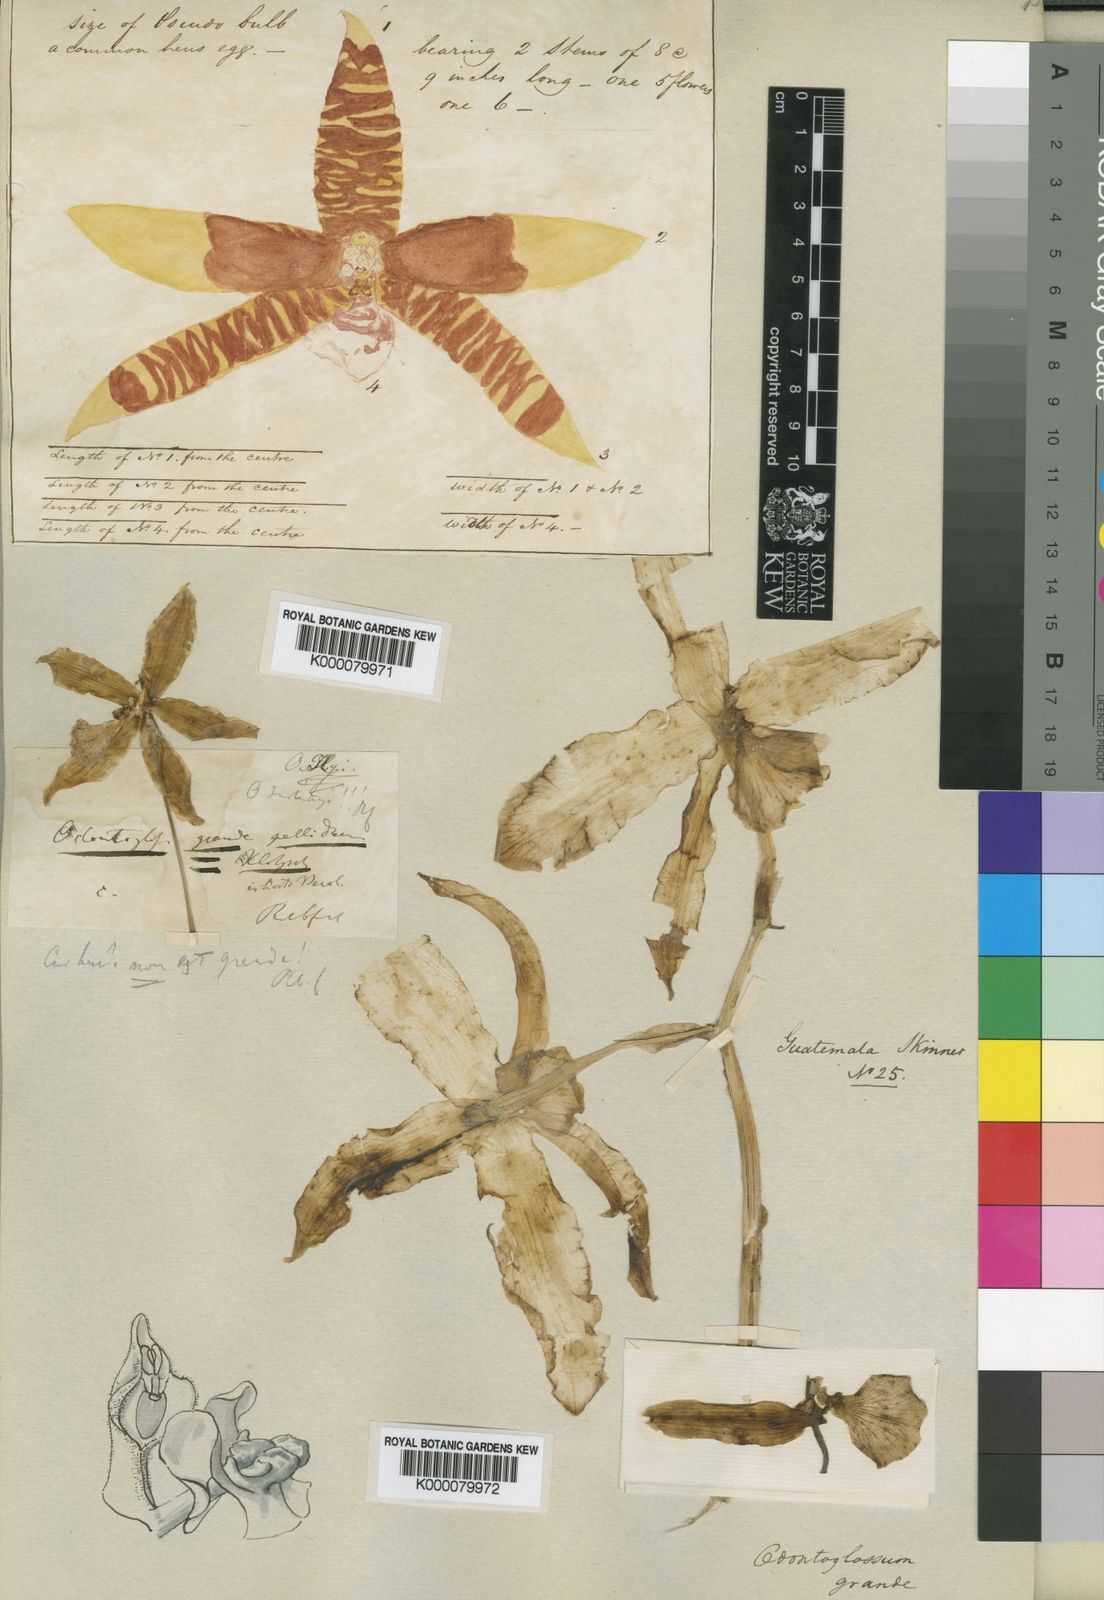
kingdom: Plantae
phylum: Tracheophyta
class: Liliopsida
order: Asparagales
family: Orchidaceae
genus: Rossioglossum
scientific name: Rossioglossum grande
